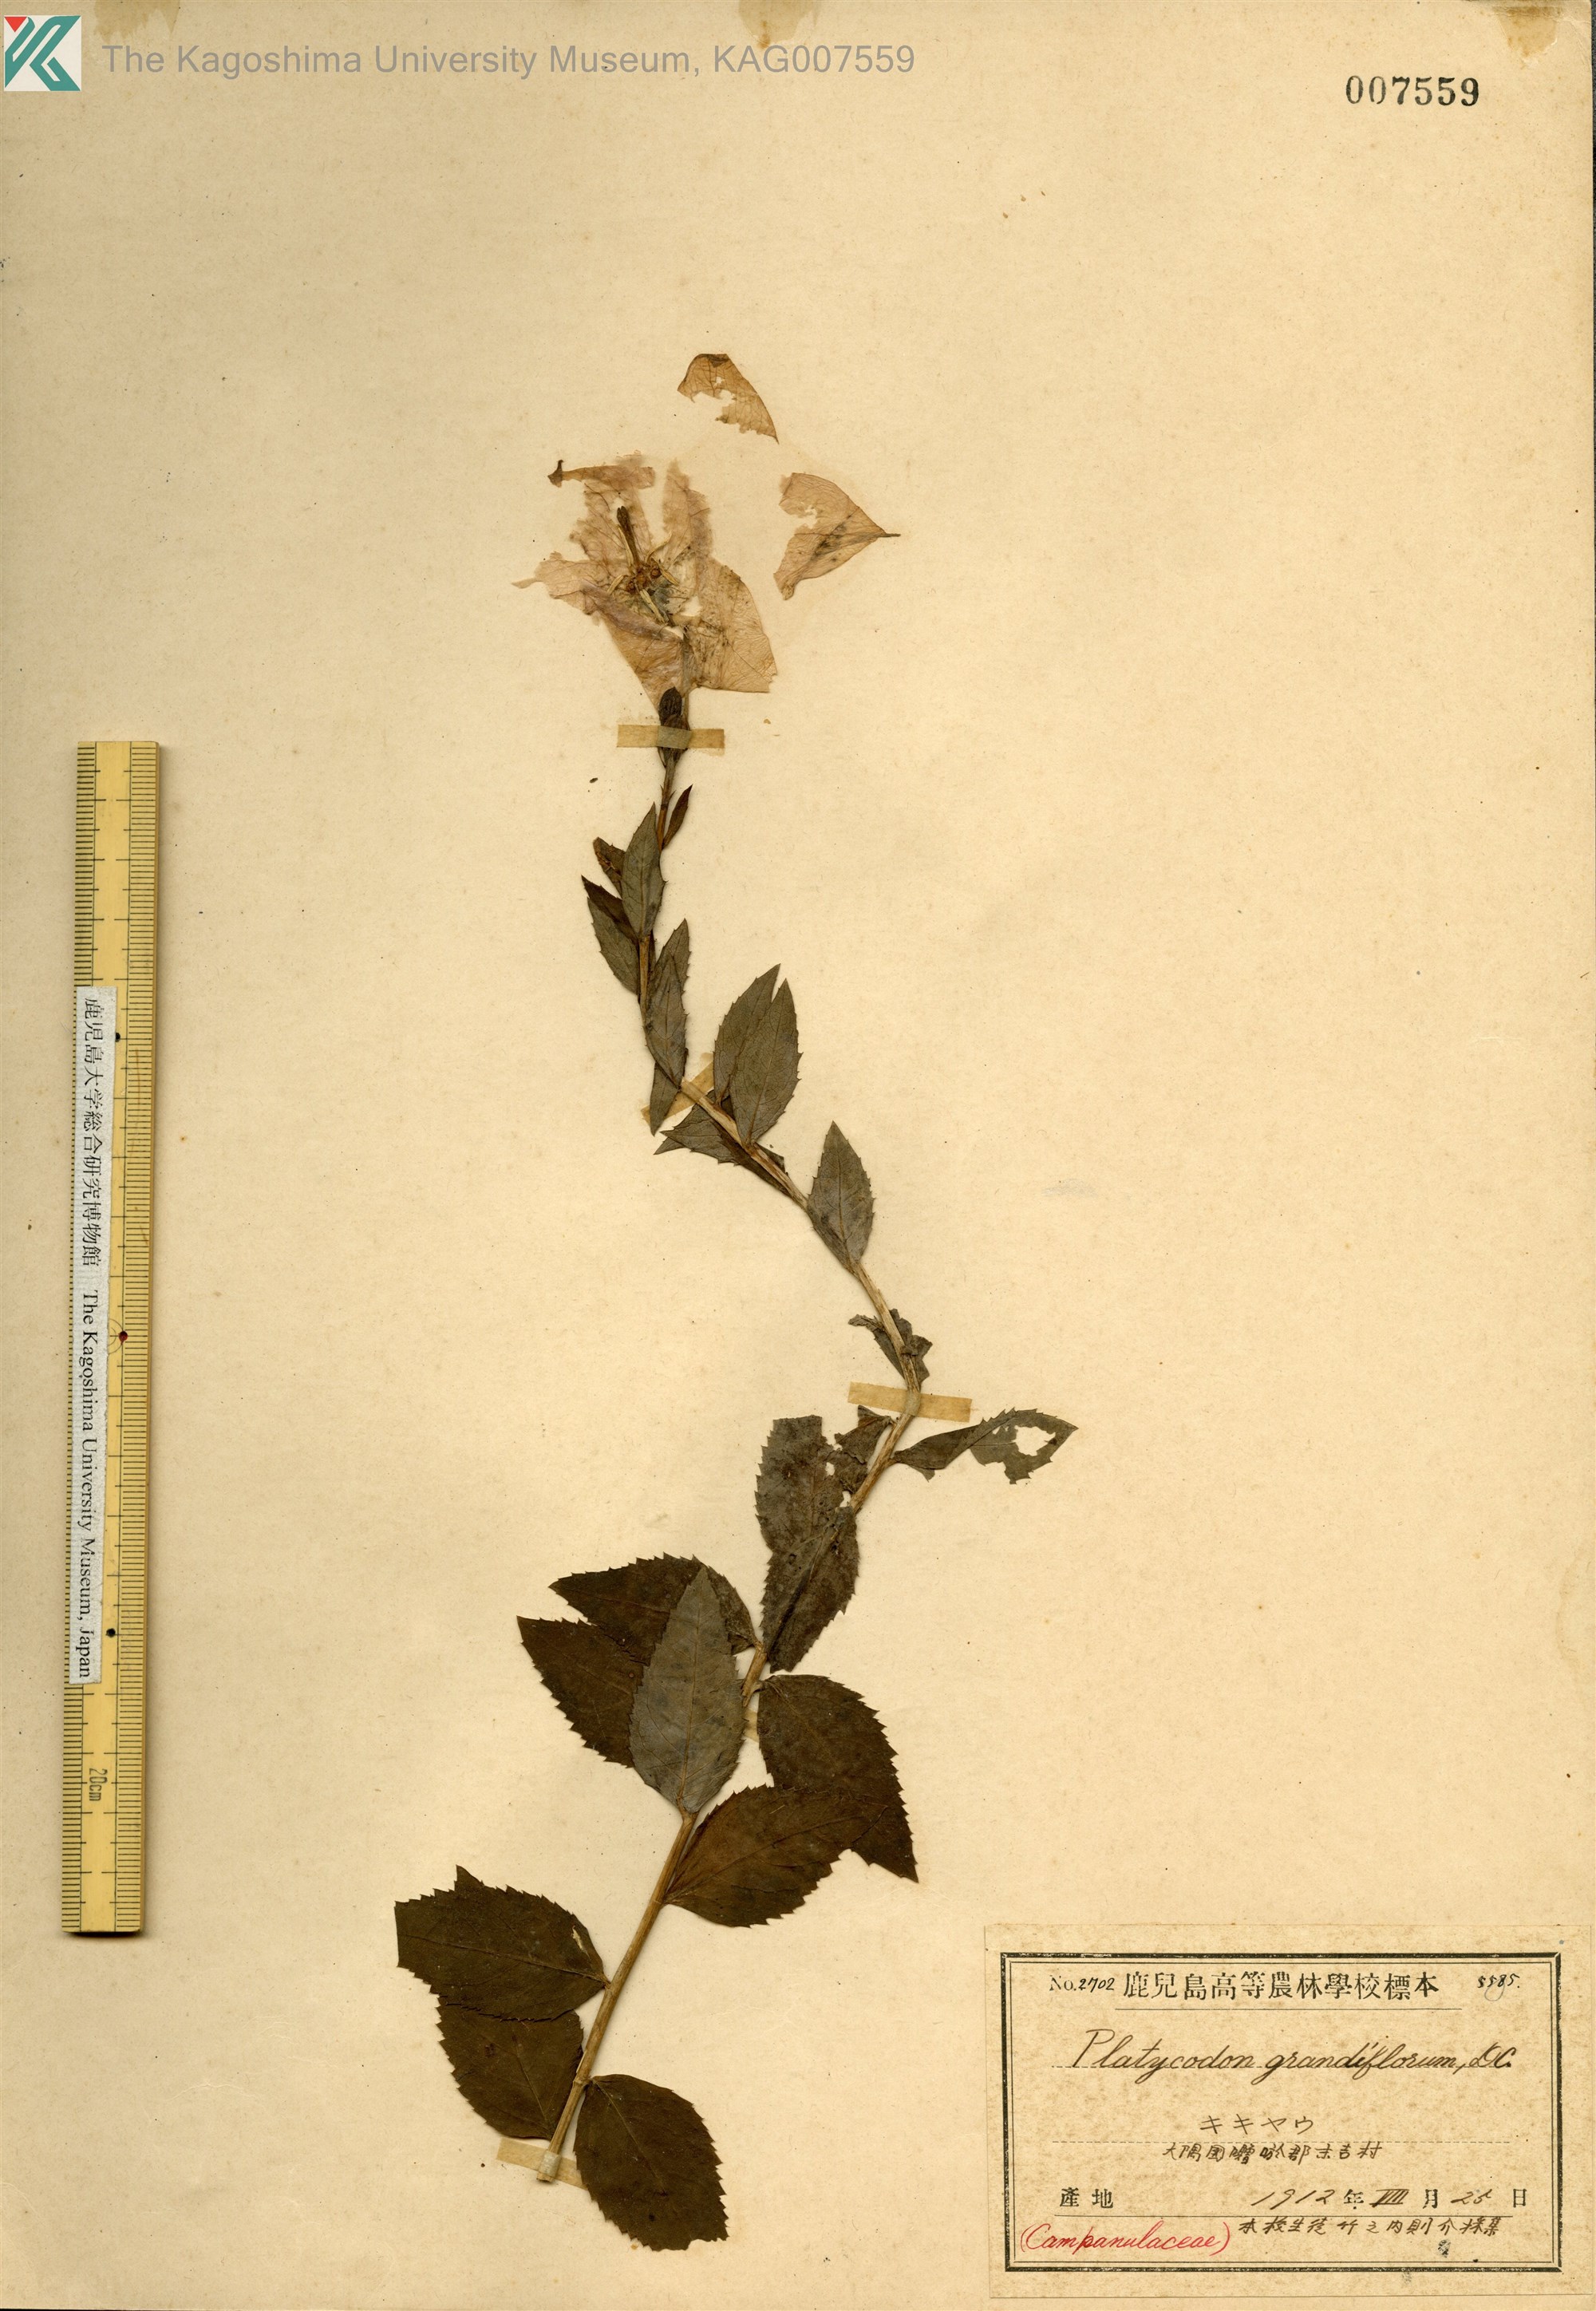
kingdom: Plantae
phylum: Tracheophyta
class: Magnoliopsida
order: Asterales
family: Campanulaceae
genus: Platycodon
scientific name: Platycodon grandiflorus
